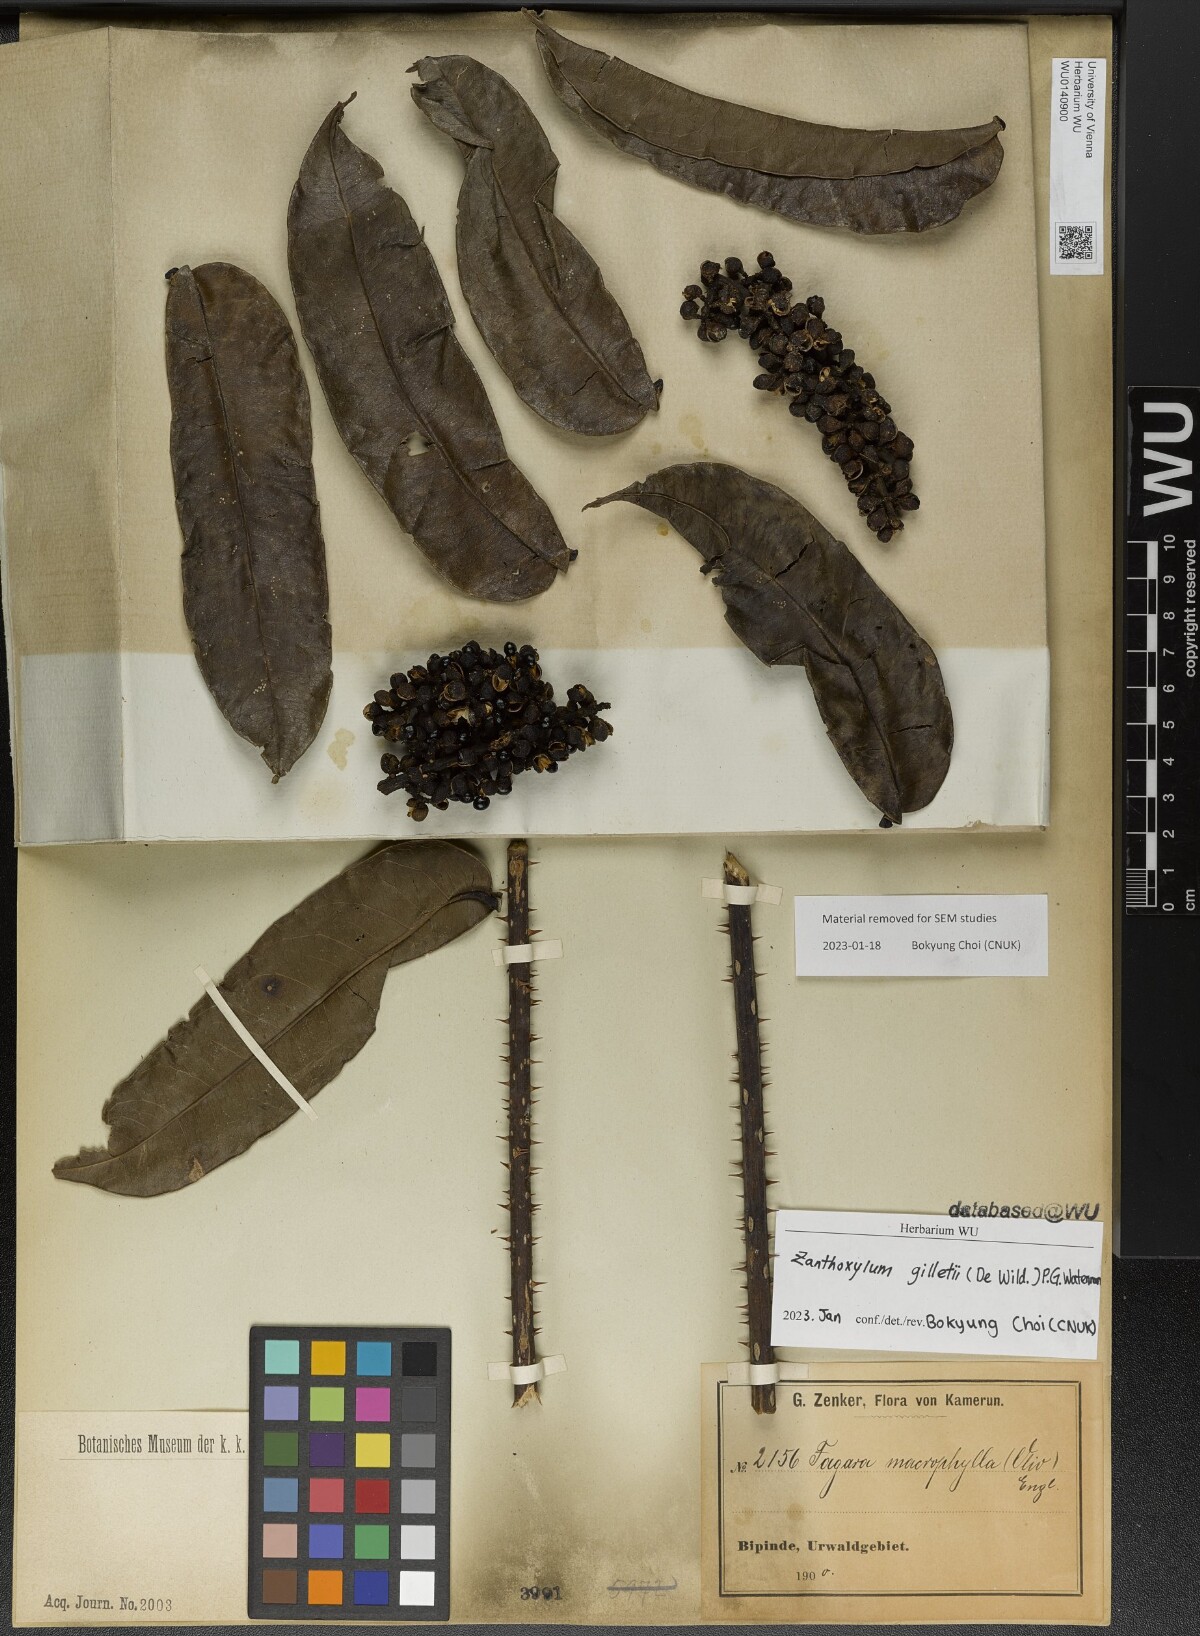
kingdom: Plantae
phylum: Tracheophyta
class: Magnoliopsida
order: Sapindales
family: Rutaceae
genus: Zanthoxylum
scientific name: Zanthoxylum gilletii
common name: African satinwood
